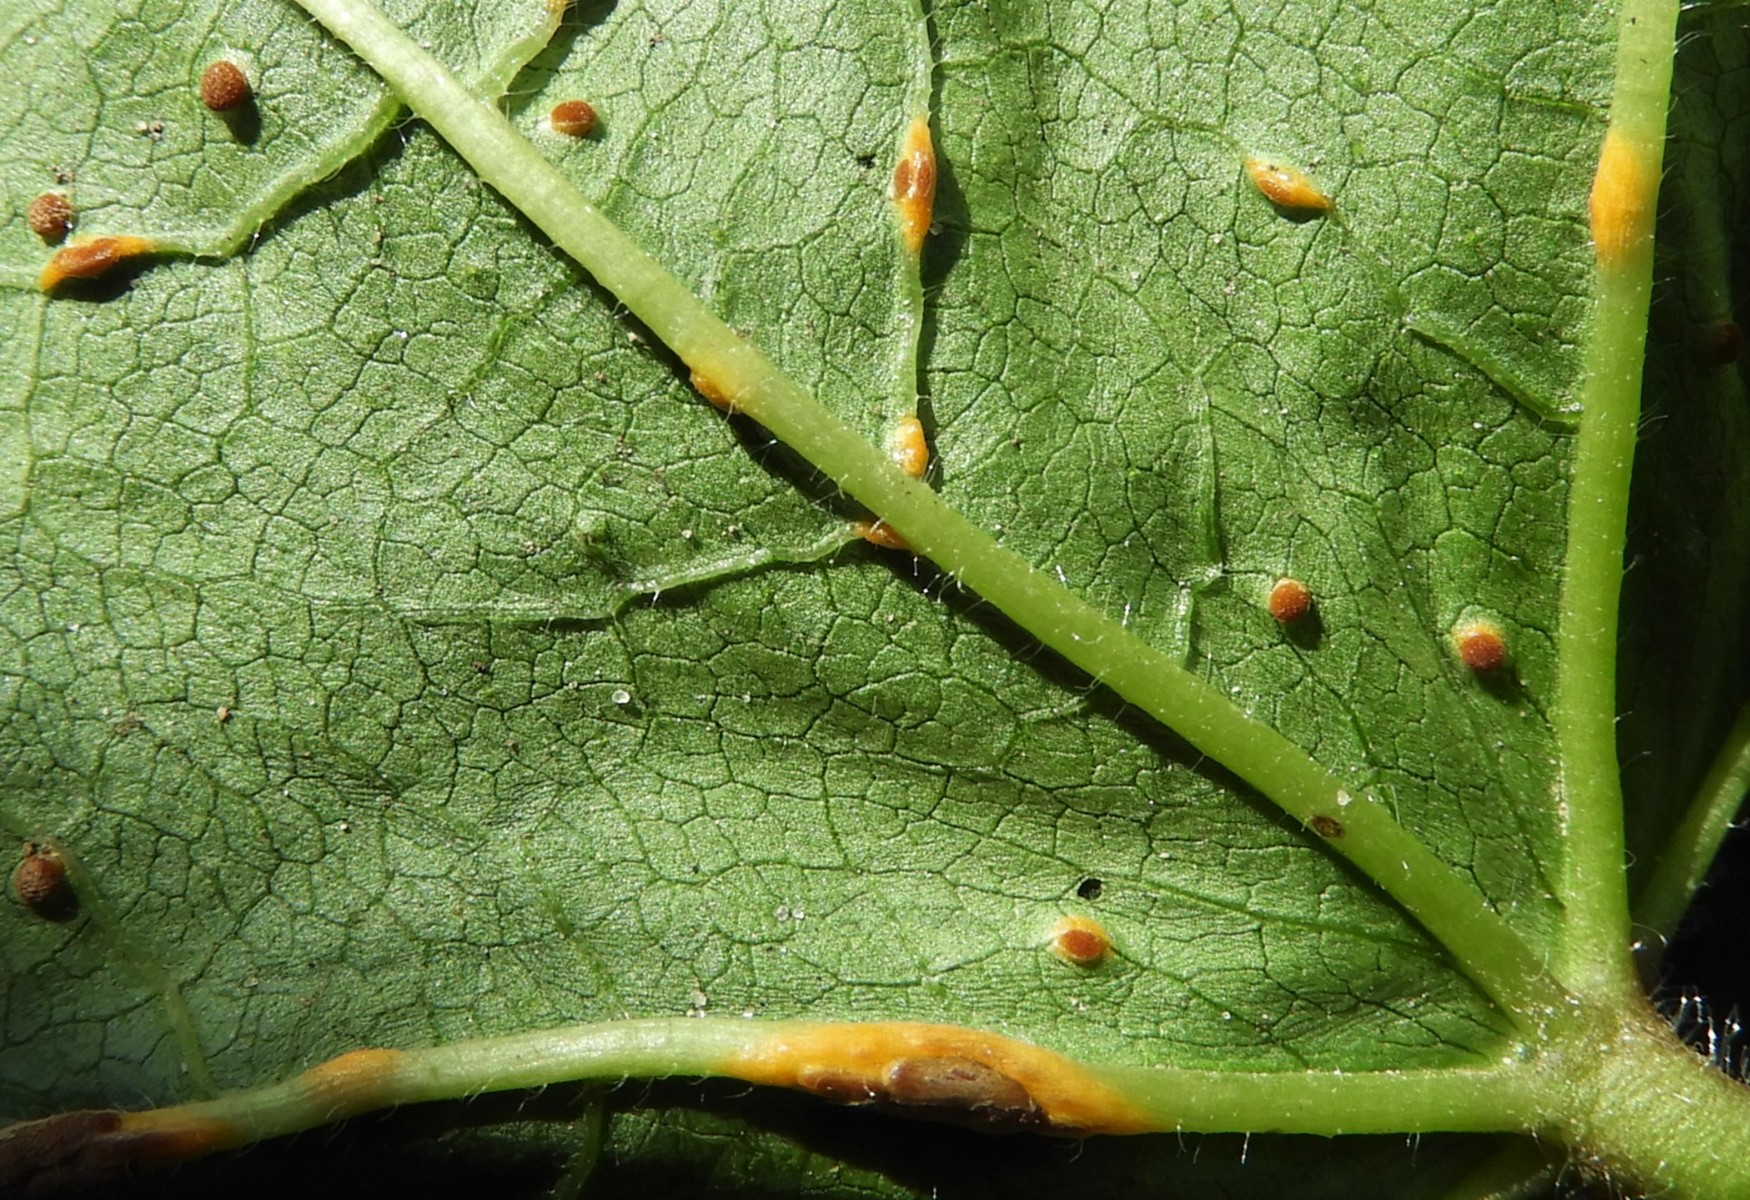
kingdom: Fungi
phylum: Basidiomycota
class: Pucciniomycetes
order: Pucciniales
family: Pucciniaceae
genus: Puccinia
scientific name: Puccinia malvacearum
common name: stokrose-tvecellerust
